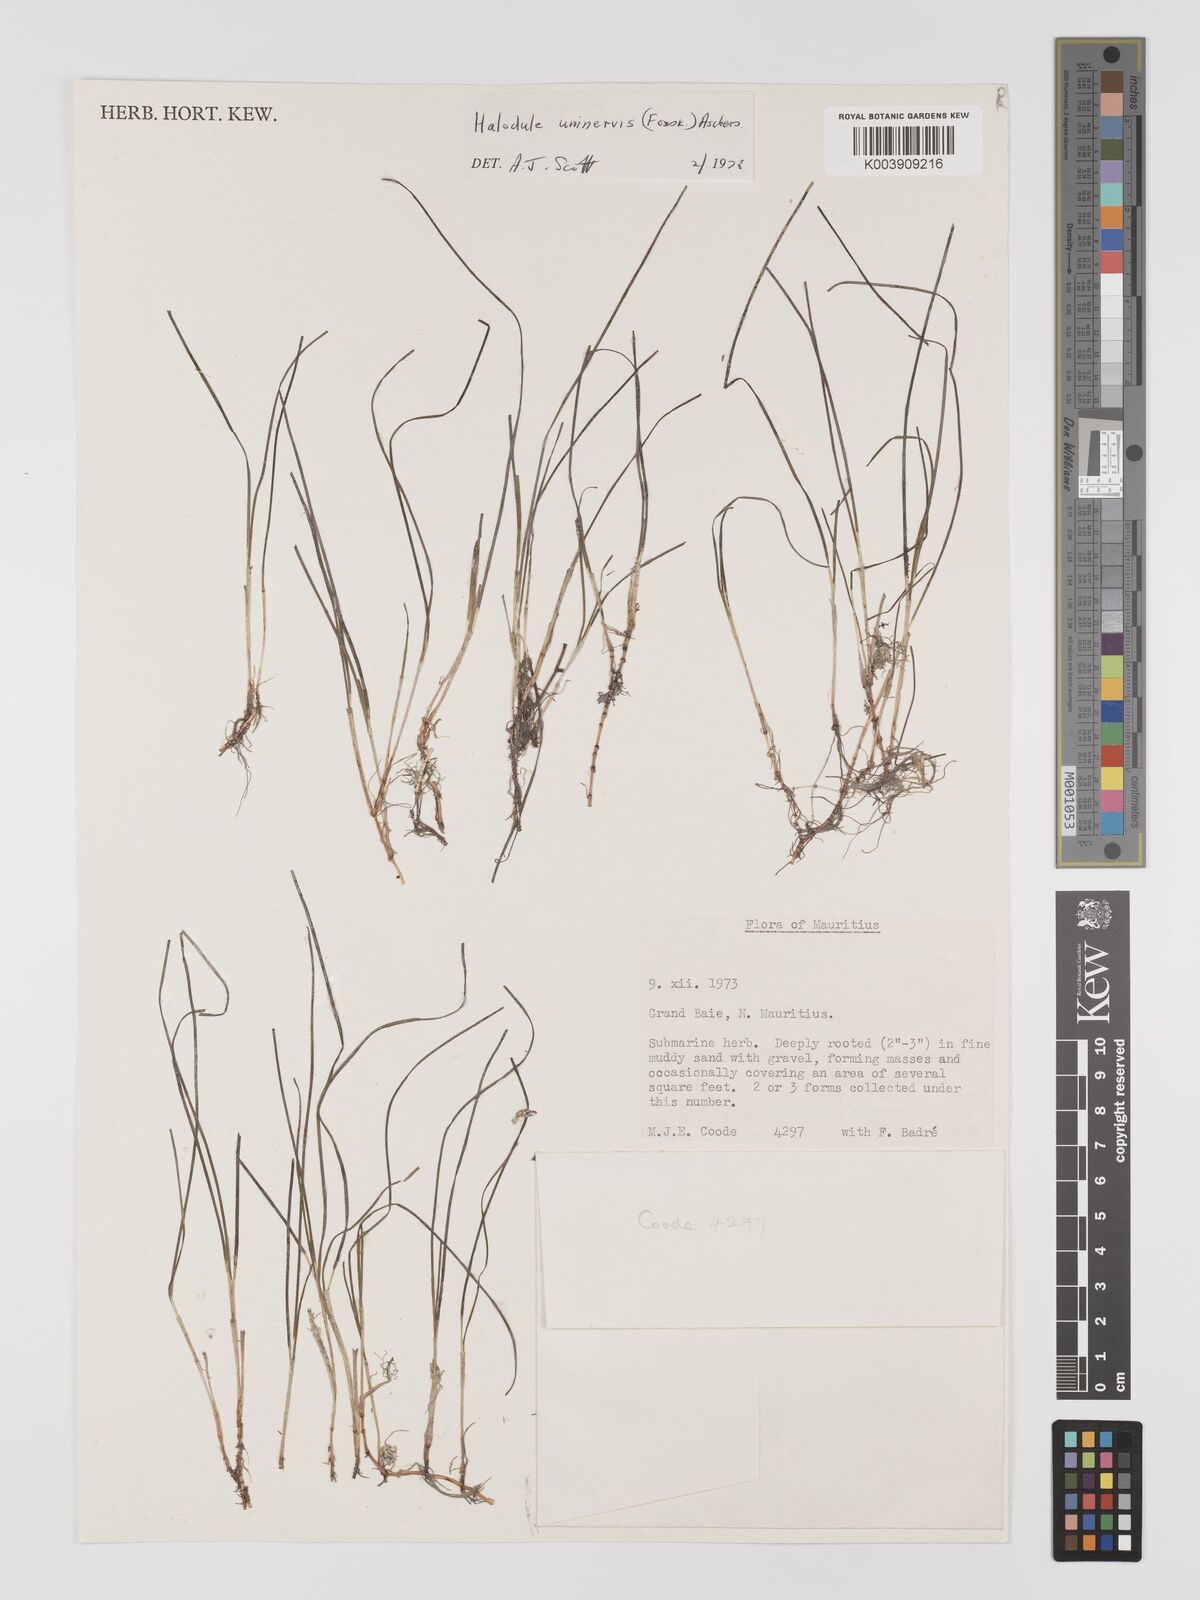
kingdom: Plantae
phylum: Tracheophyta
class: Liliopsida
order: Alismatales
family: Cymodoceaceae
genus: Halodule
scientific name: Halodule uninervis
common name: Narrowleaf seagrass
